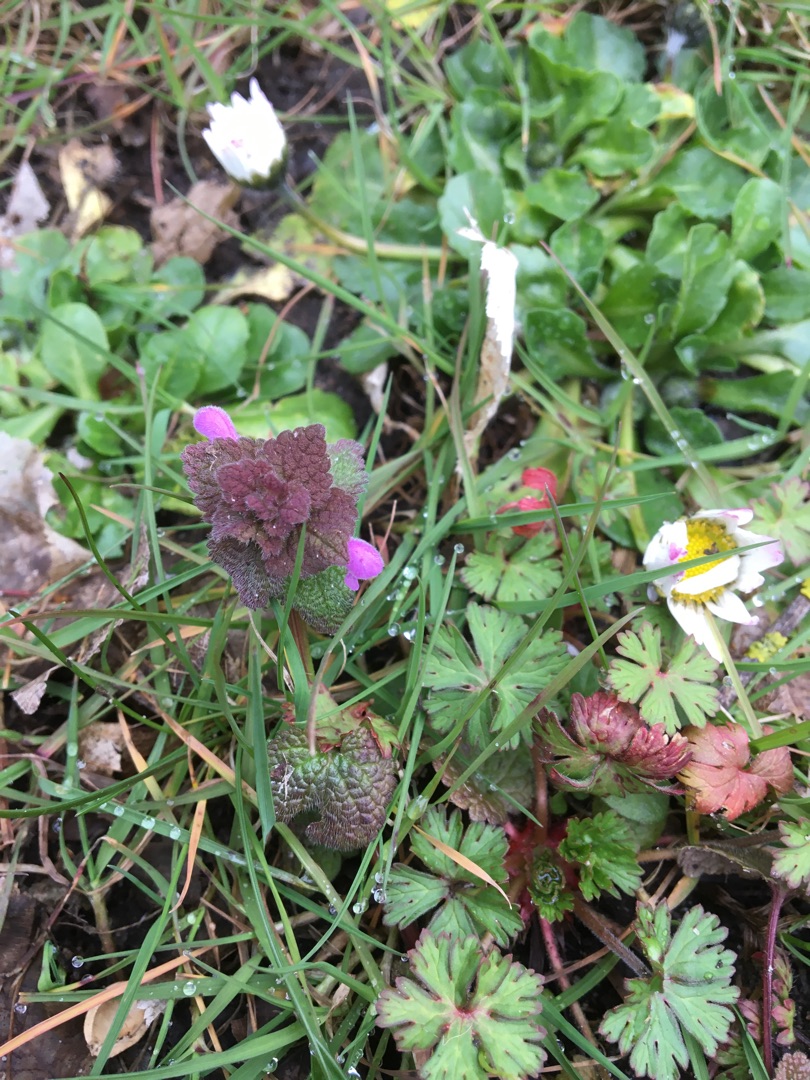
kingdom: Plantae
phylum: Tracheophyta
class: Magnoliopsida
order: Lamiales
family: Lamiaceae
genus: Lamium
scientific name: Lamium purpureum
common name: Rød tvetand
